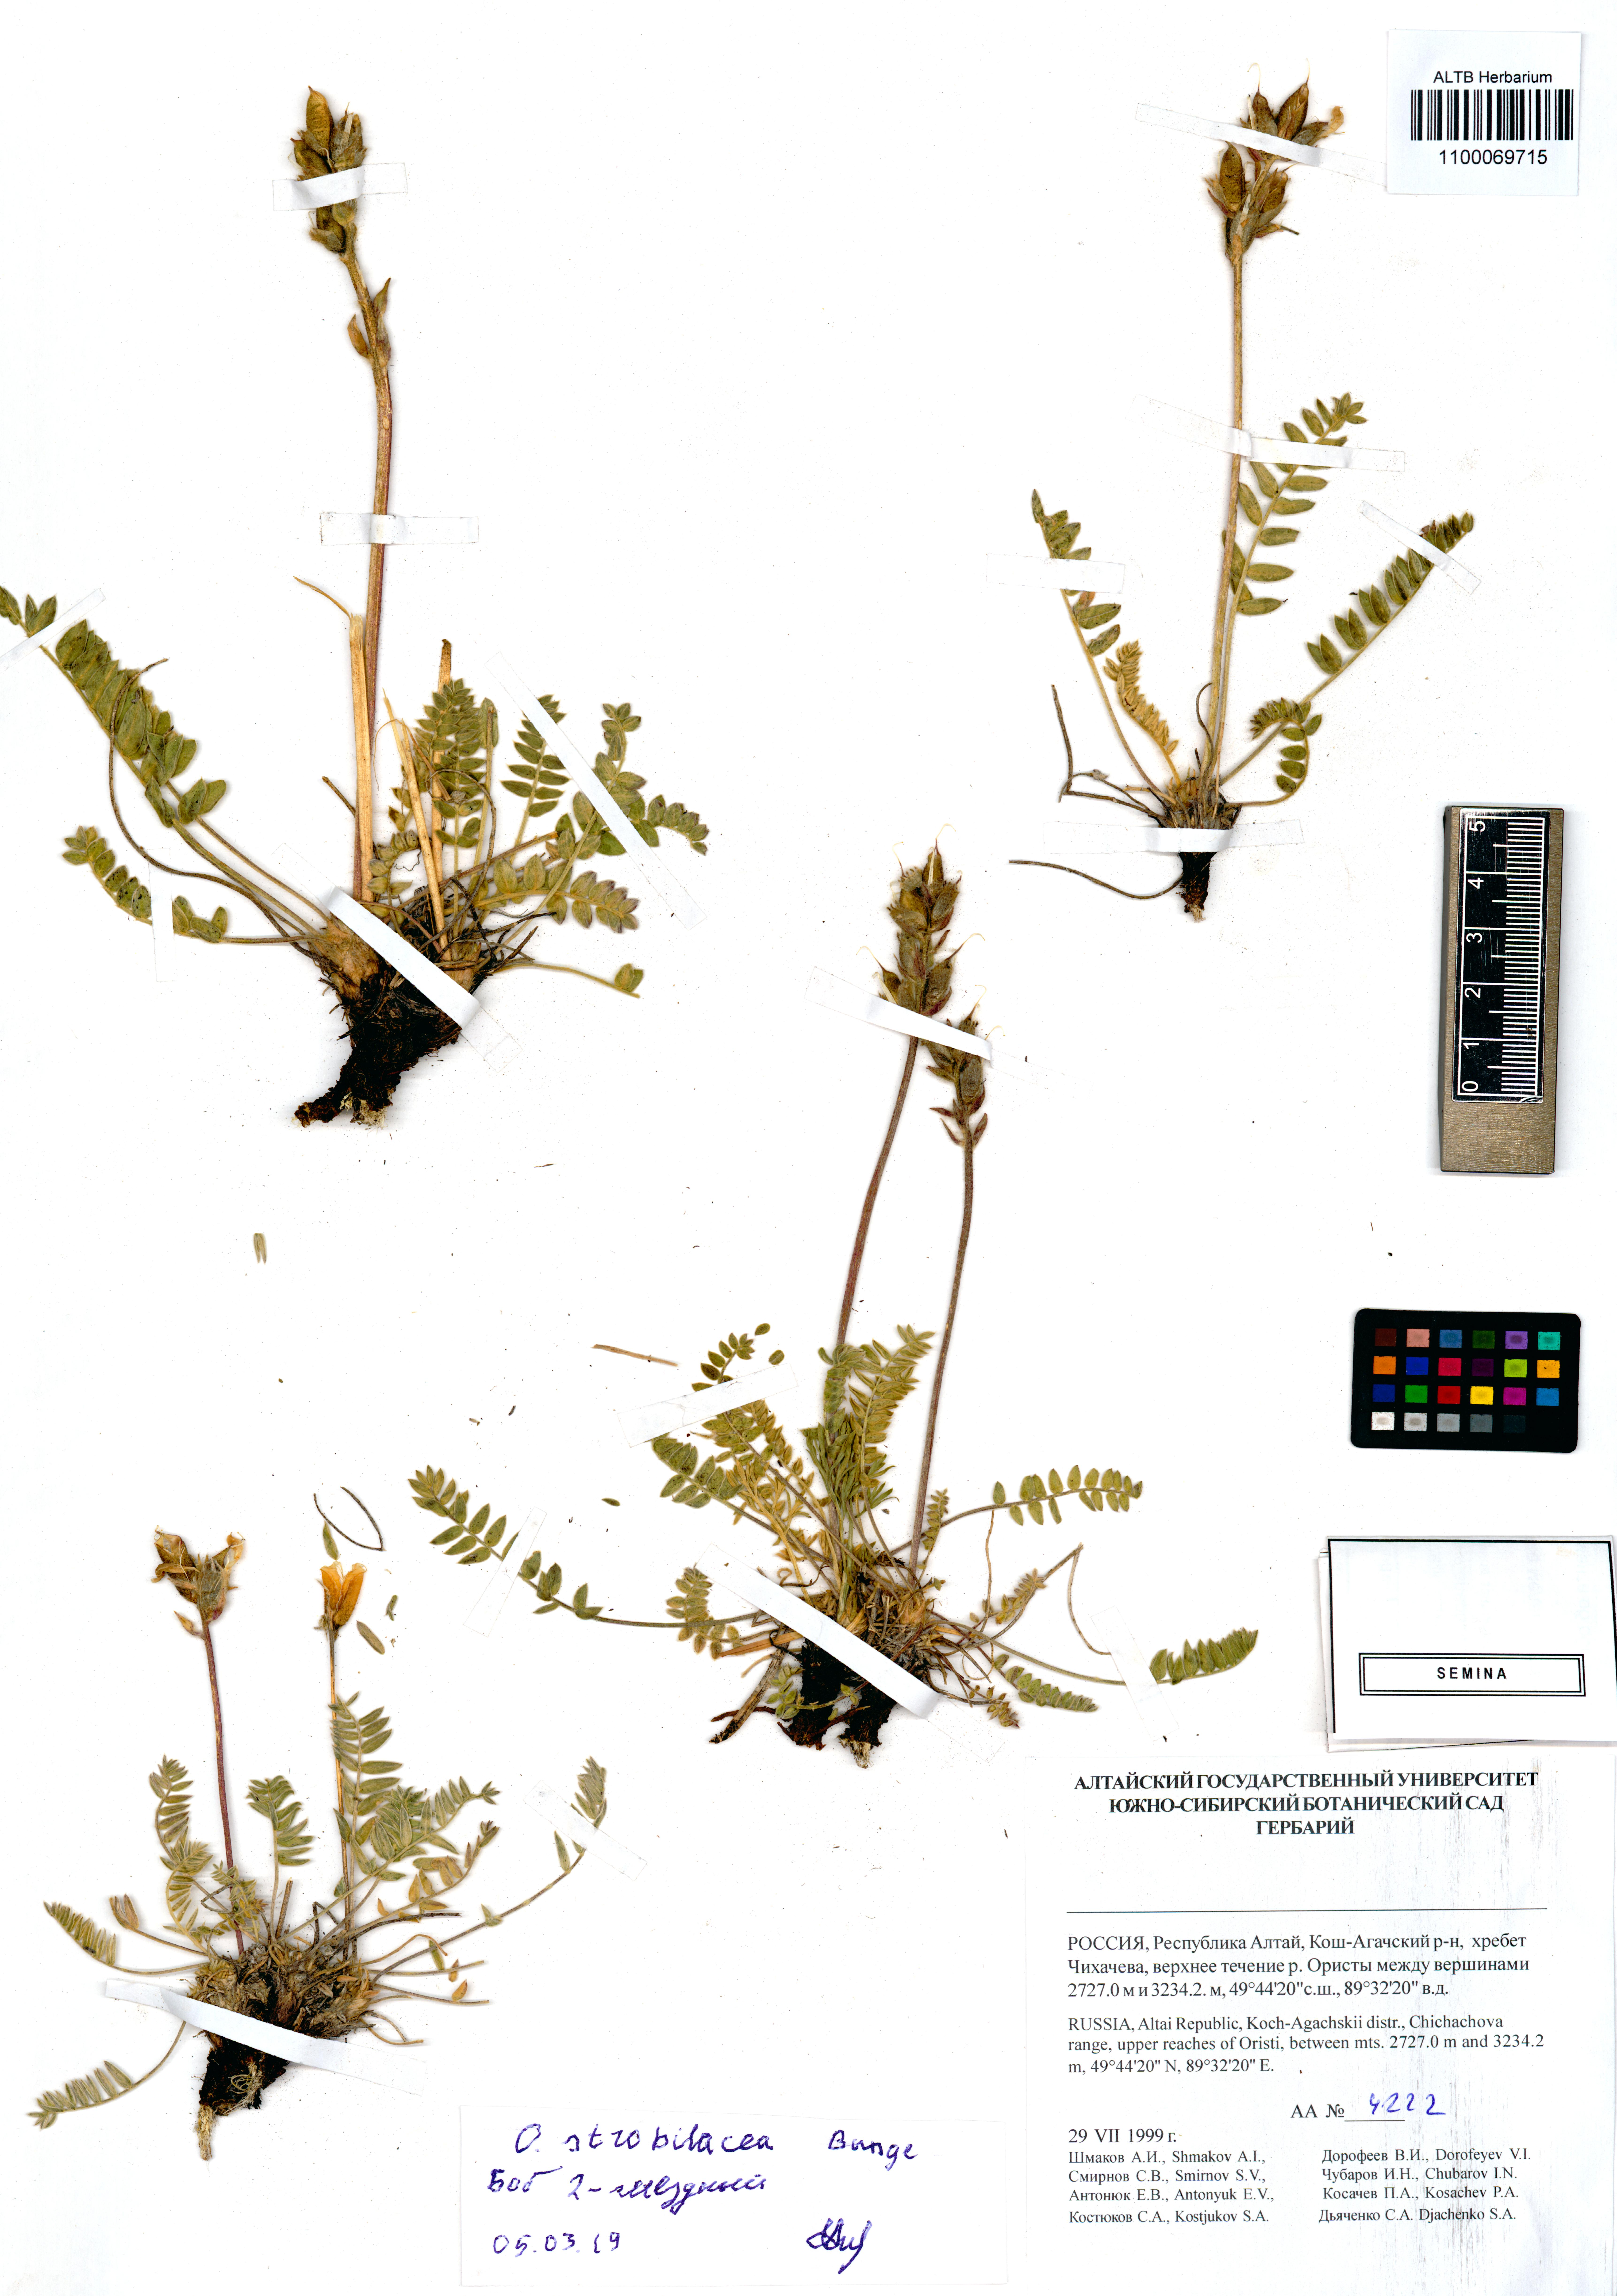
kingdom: Plantae
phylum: Tracheophyta
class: Magnoliopsida
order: Fabales
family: Fabaceae
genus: Oxytropis
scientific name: Oxytropis strobilacea
